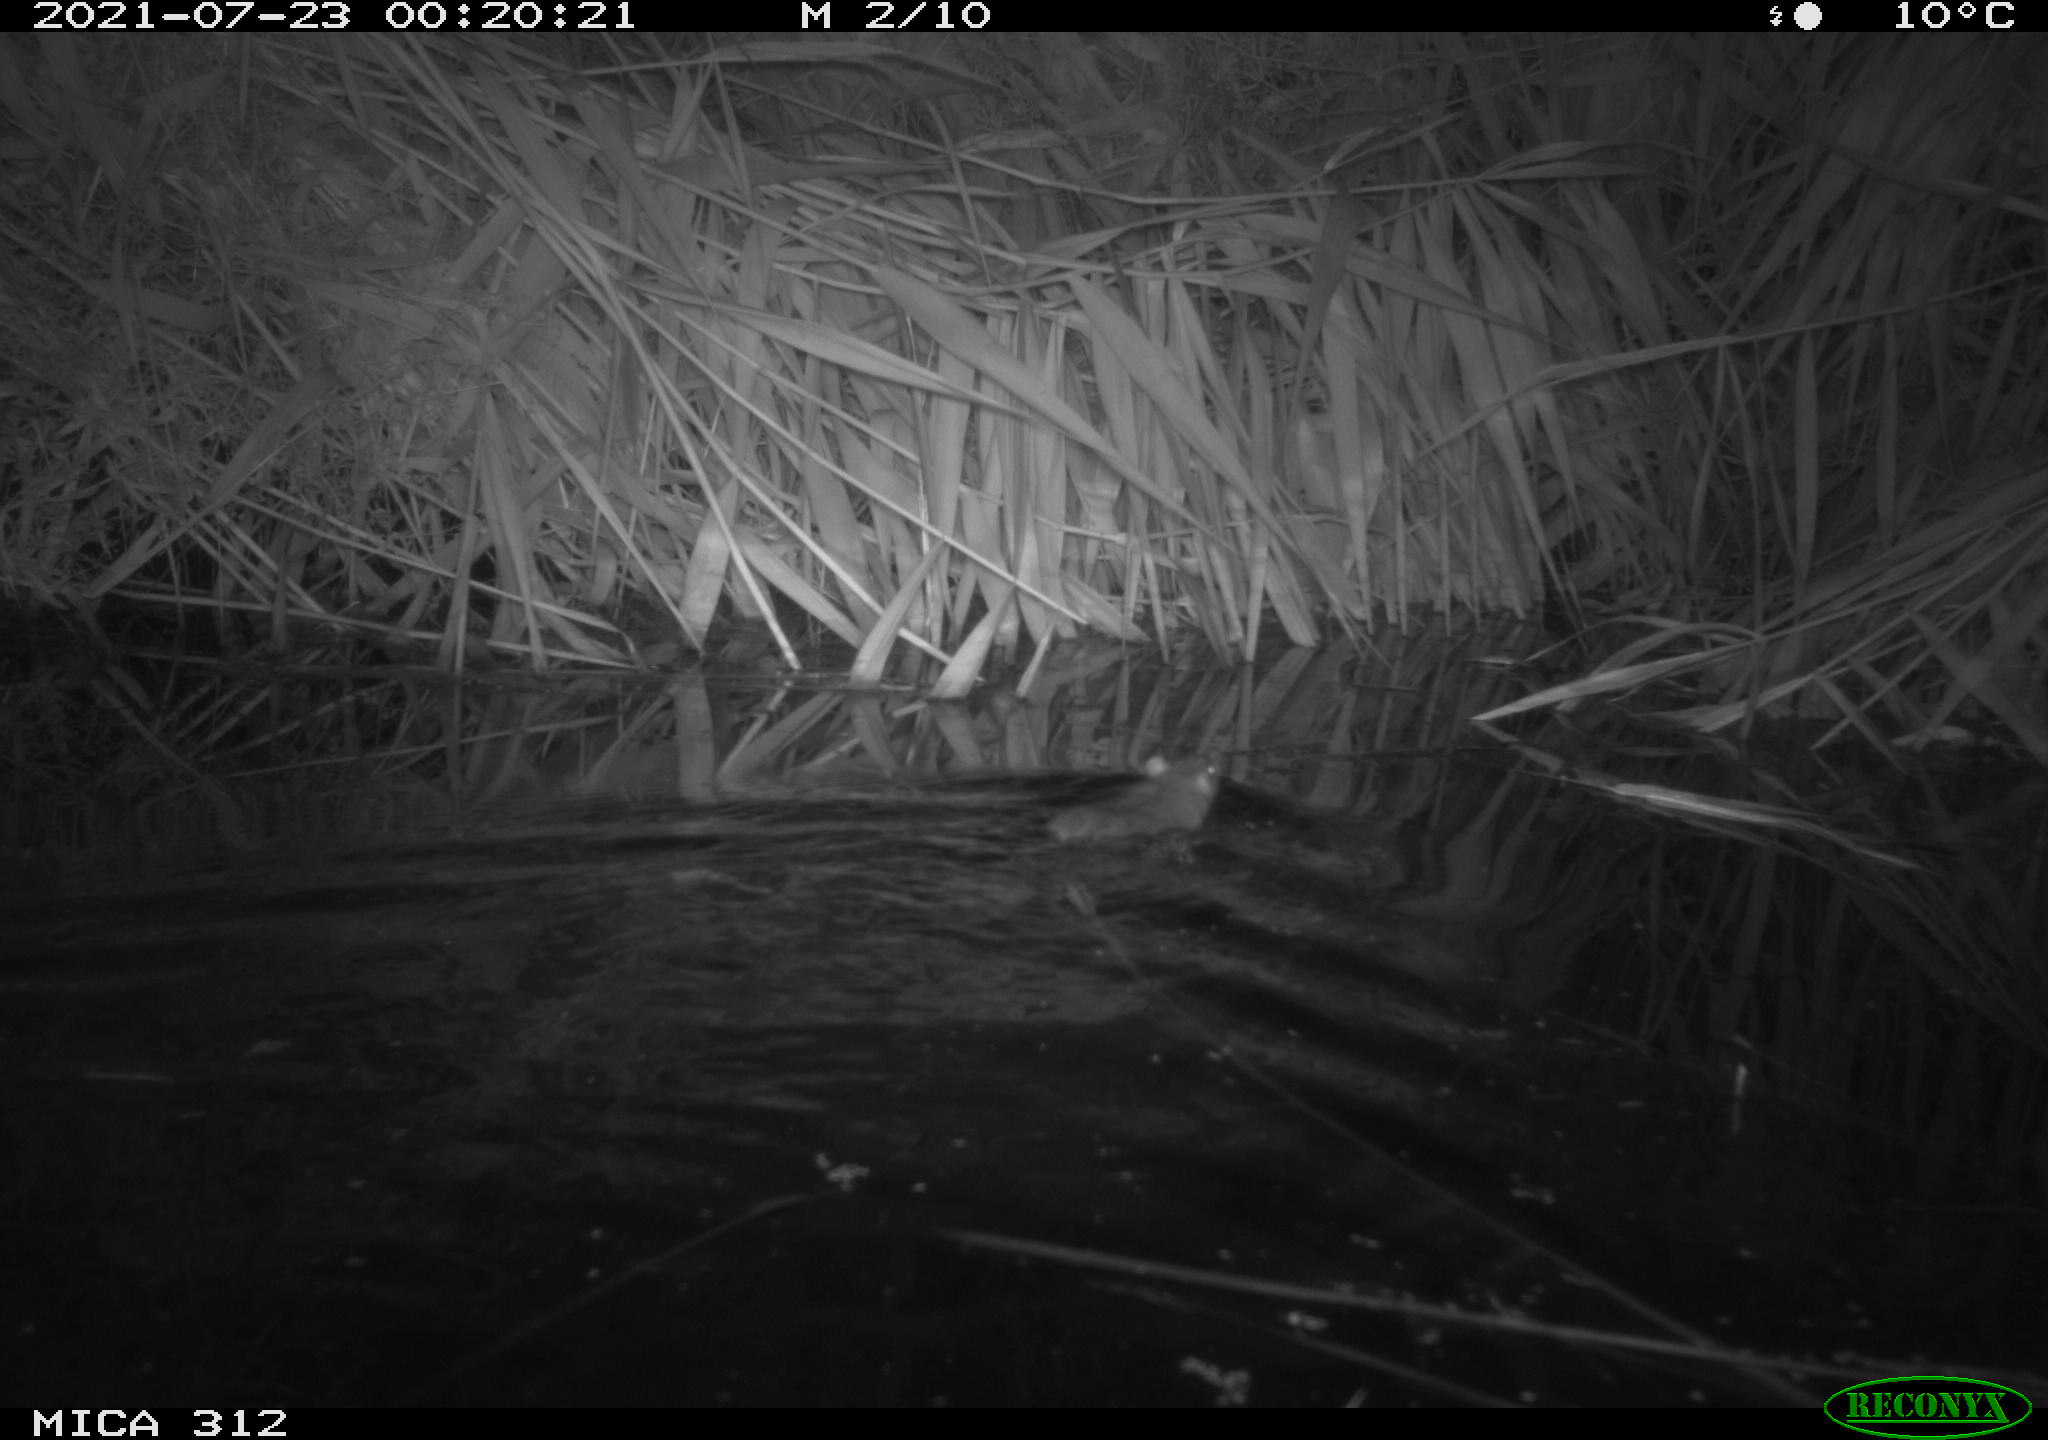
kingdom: Animalia
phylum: Chordata
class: Mammalia
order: Rodentia
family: Muridae
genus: Rattus
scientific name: Rattus norvegicus
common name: Brown rat
